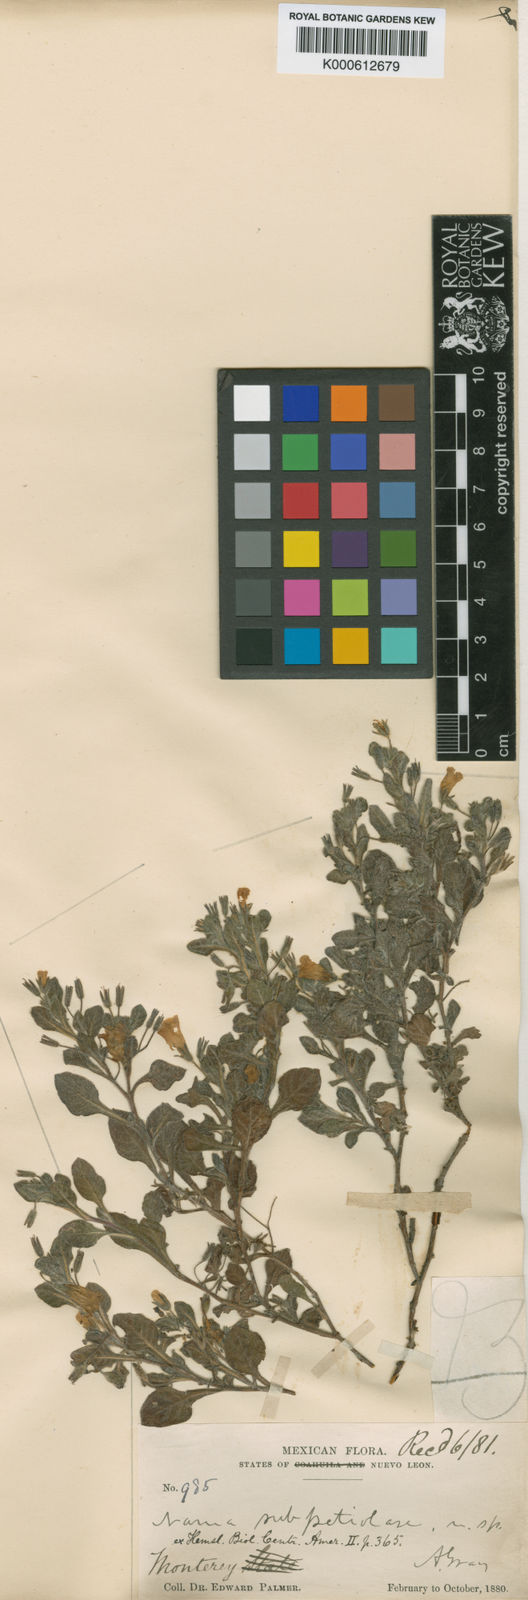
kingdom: Plantae
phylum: Tracheophyta
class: Magnoliopsida
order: Boraginales
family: Namaceae
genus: Nama
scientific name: Nama
